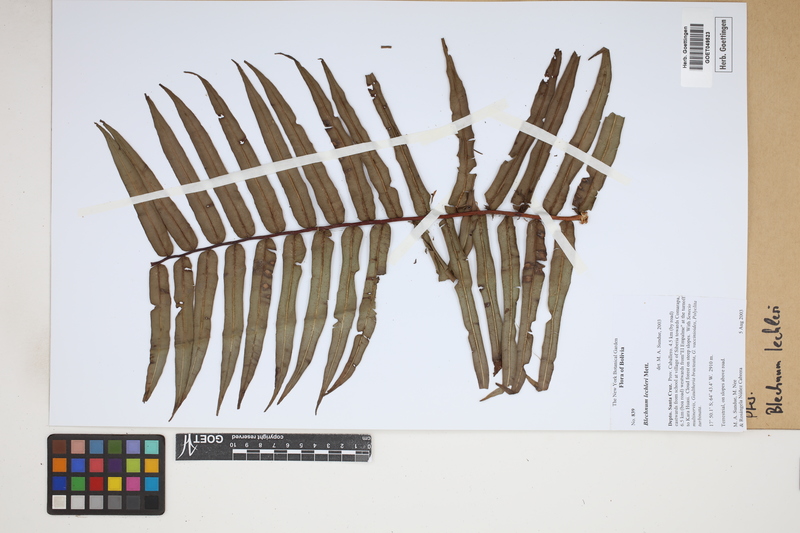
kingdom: Plantae
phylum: Tracheophyta
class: Polypodiopsida
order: Polypodiales
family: Blechnaceae
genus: Parablechnum
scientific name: Parablechnum lechleri
